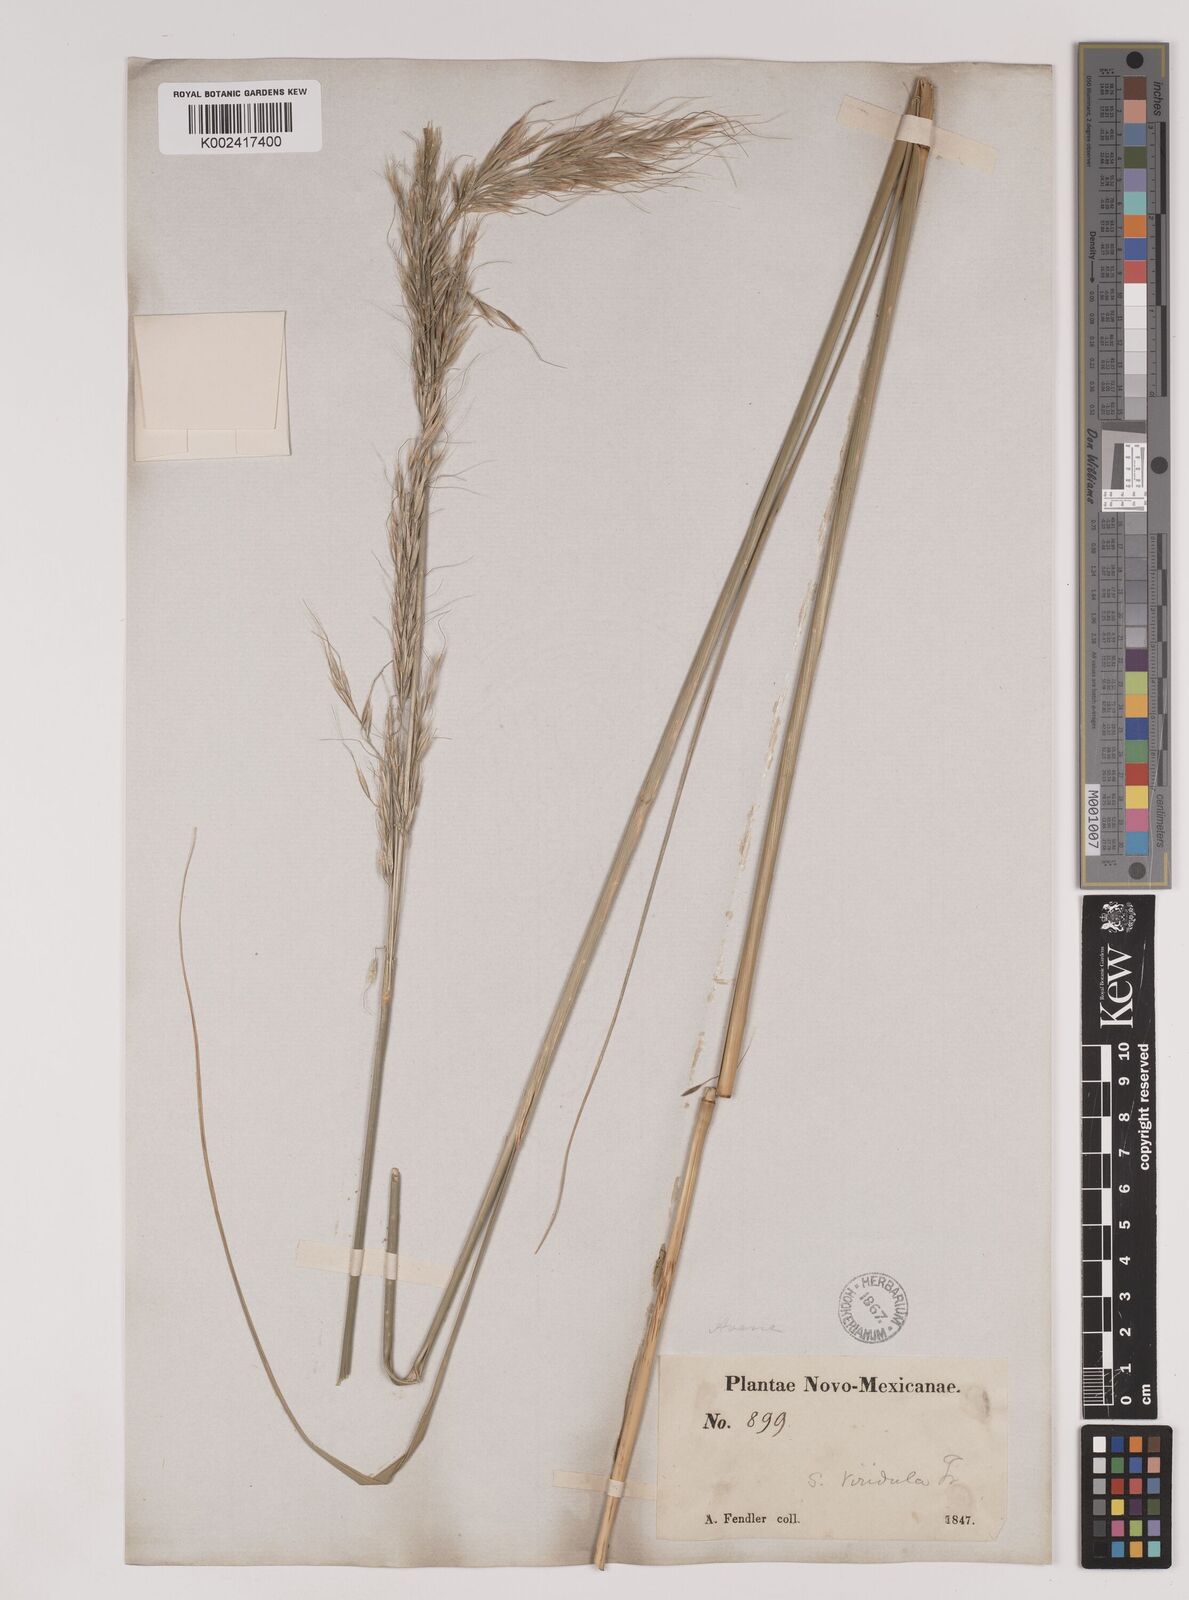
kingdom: Plantae
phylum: Tracheophyta
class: Liliopsida
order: Poales
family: Poaceae
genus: Nassella
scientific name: Nassella viridula
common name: Green needlegrass
